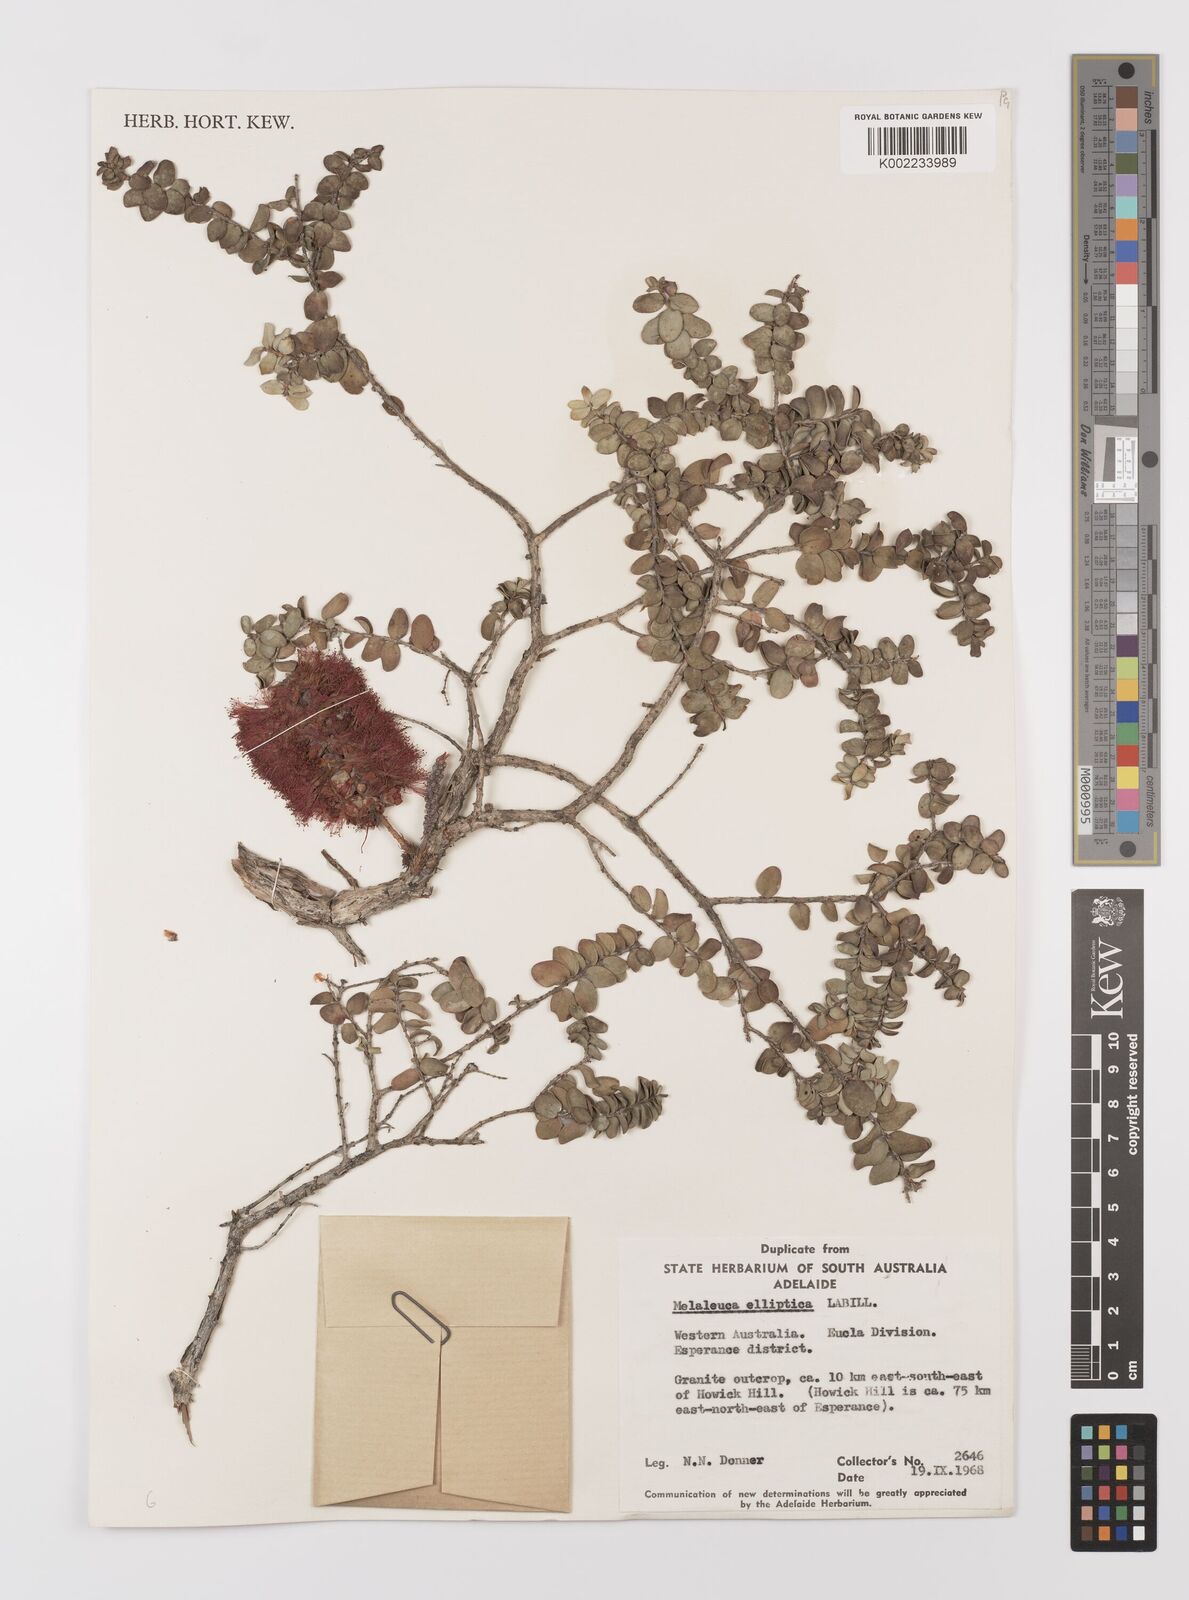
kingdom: Plantae
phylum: Tracheophyta
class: Magnoliopsida
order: Myrtales
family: Myrtaceae
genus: Melaleuca
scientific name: Melaleuca elliptica
